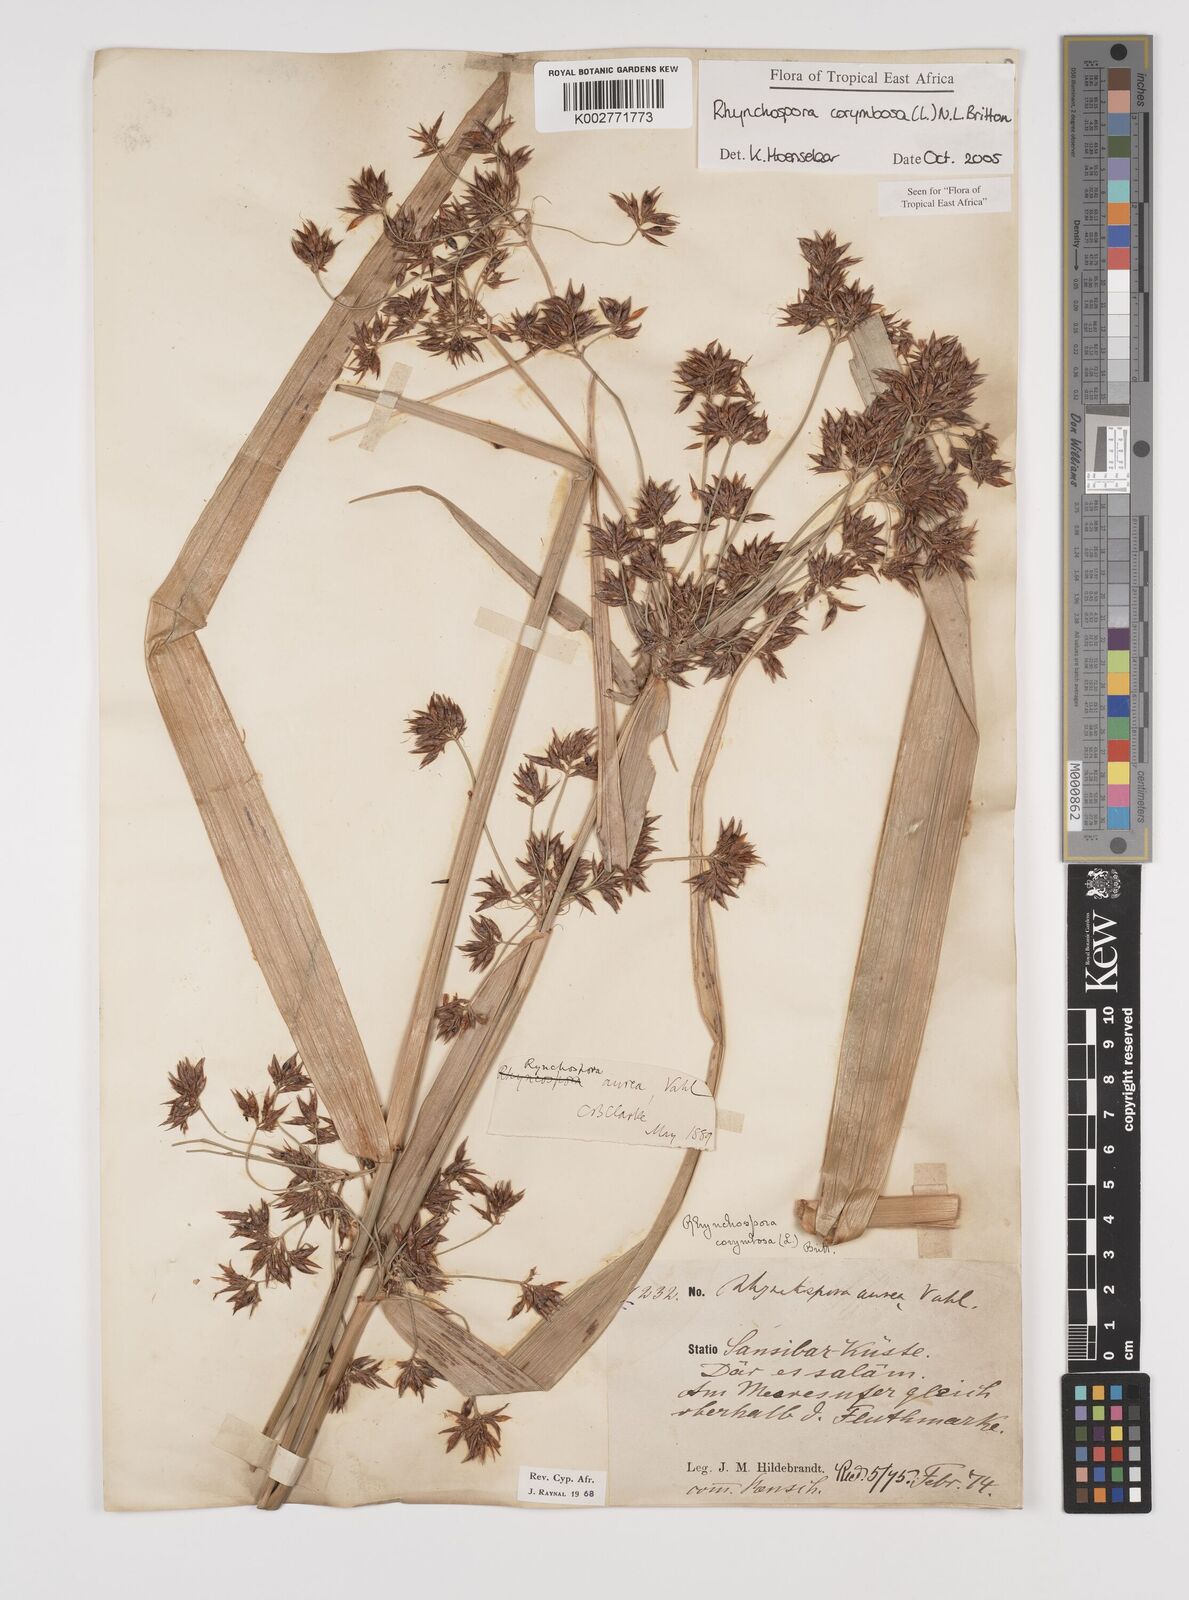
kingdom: Plantae
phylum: Tracheophyta
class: Liliopsida
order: Poales
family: Cyperaceae
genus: Rhynchospora
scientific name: Rhynchospora corymbosa
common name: Golden beak sedge
